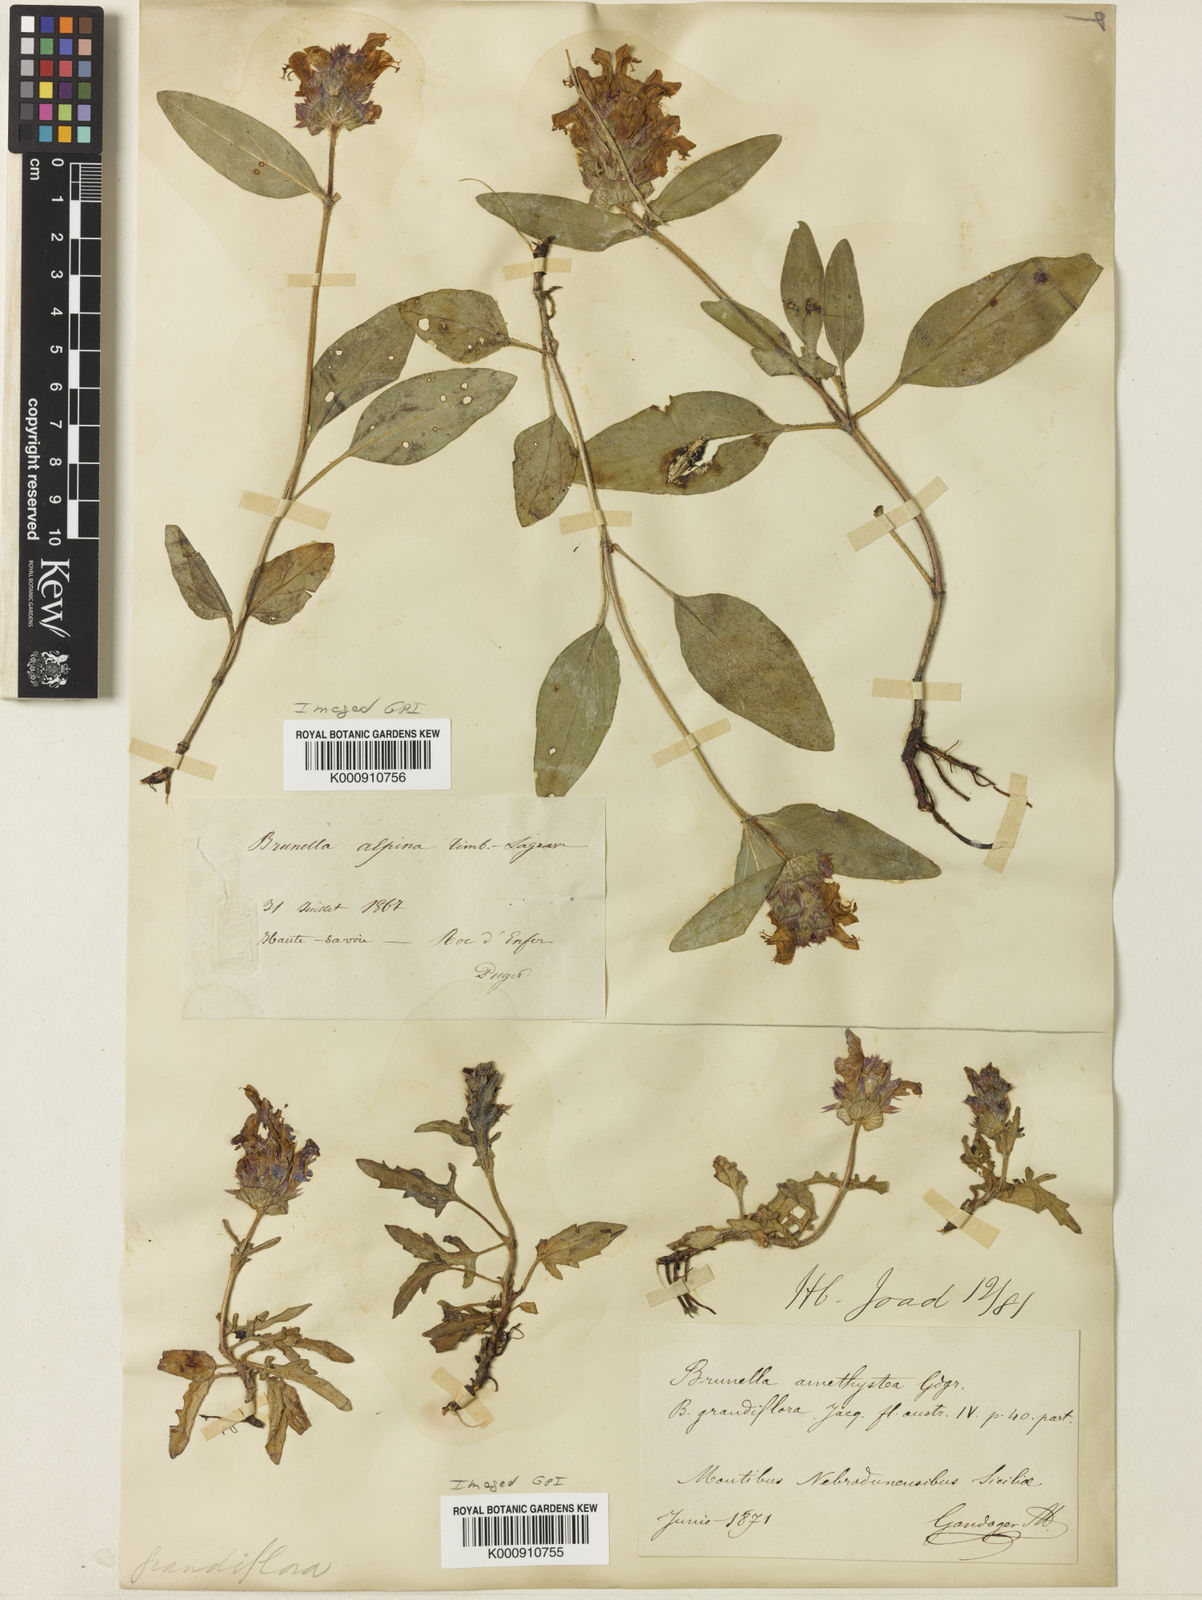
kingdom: Plantae
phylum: Tracheophyta
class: Magnoliopsida
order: Lamiales
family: Lamiaceae
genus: Prunella
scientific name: Prunella
